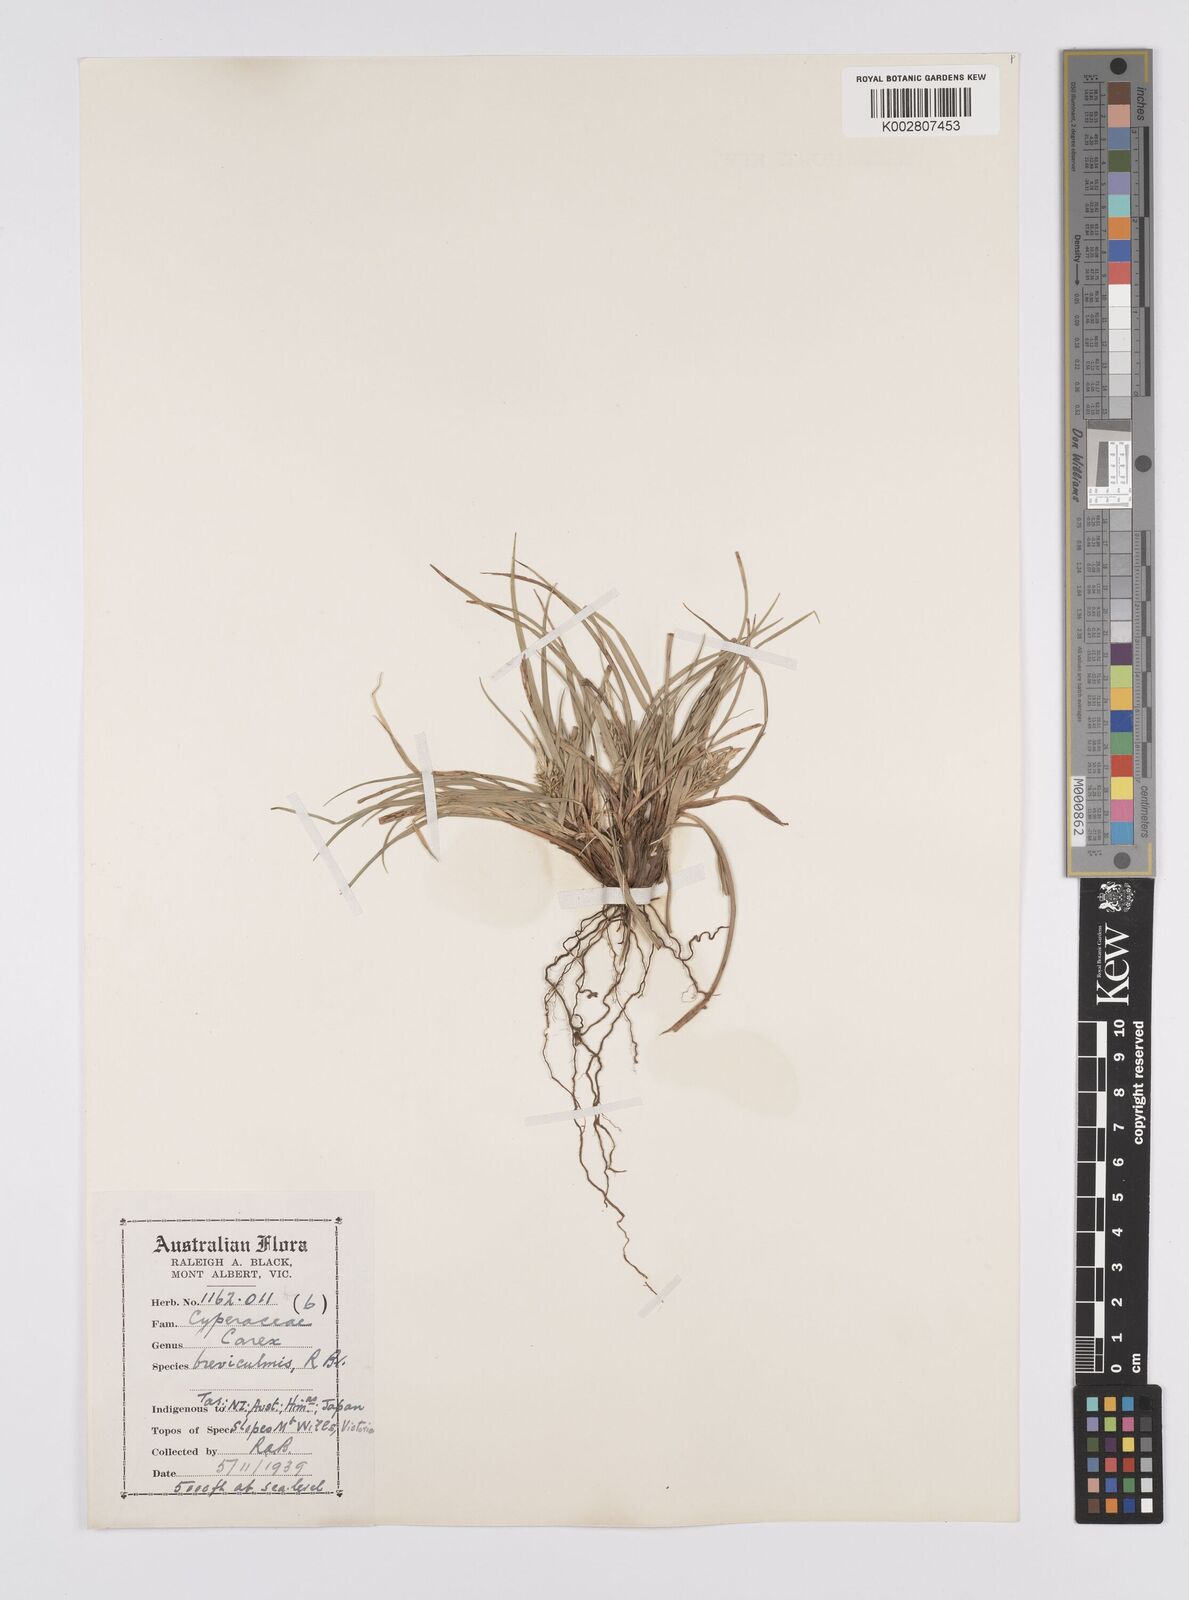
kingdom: Plantae
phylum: Tracheophyta
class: Liliopsida
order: Poales
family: Cyperaceae
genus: Carex
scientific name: Carex breviculmis
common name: Asian shortstem sedge
